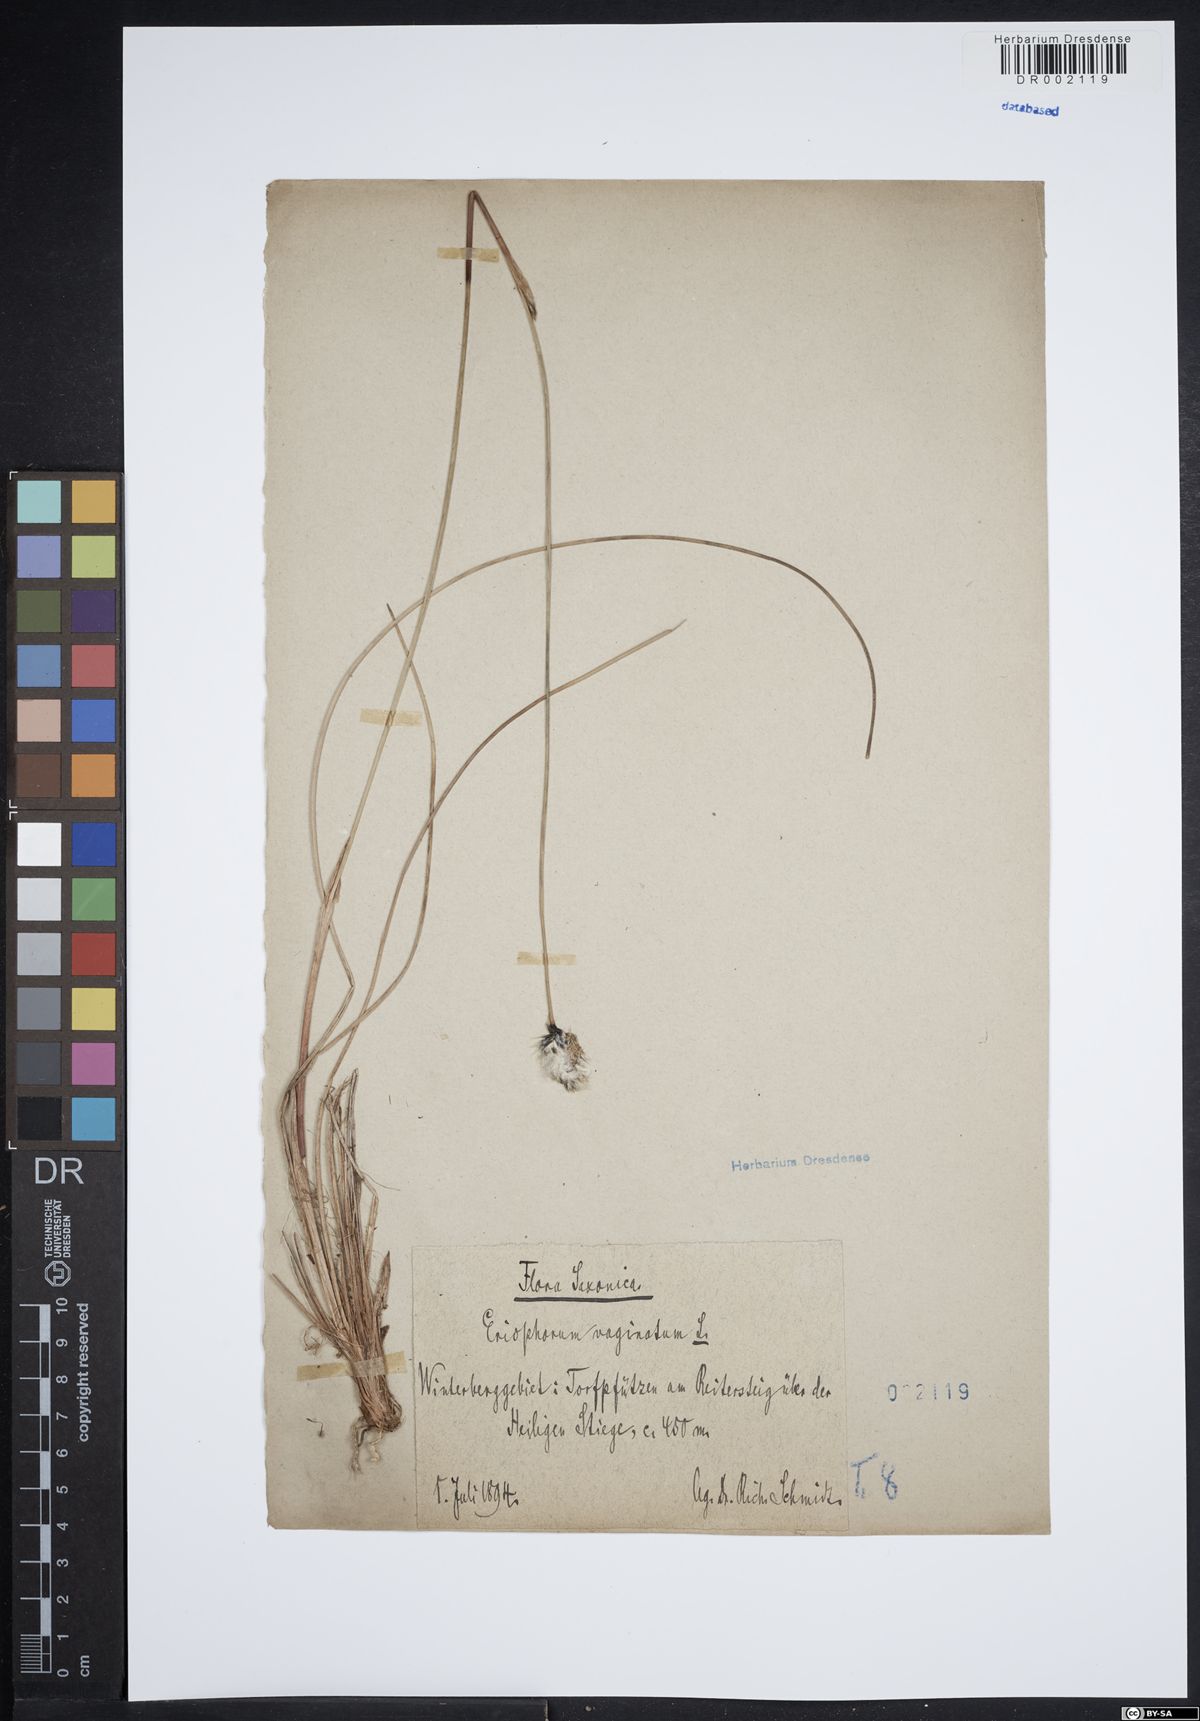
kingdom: Plantae
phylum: Tracheophyta
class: Liliopsida
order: Poales
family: Cyperaceae
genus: Eriophorum
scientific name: Eriophorum vaginatum
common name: Hare's-tail cottongrass
